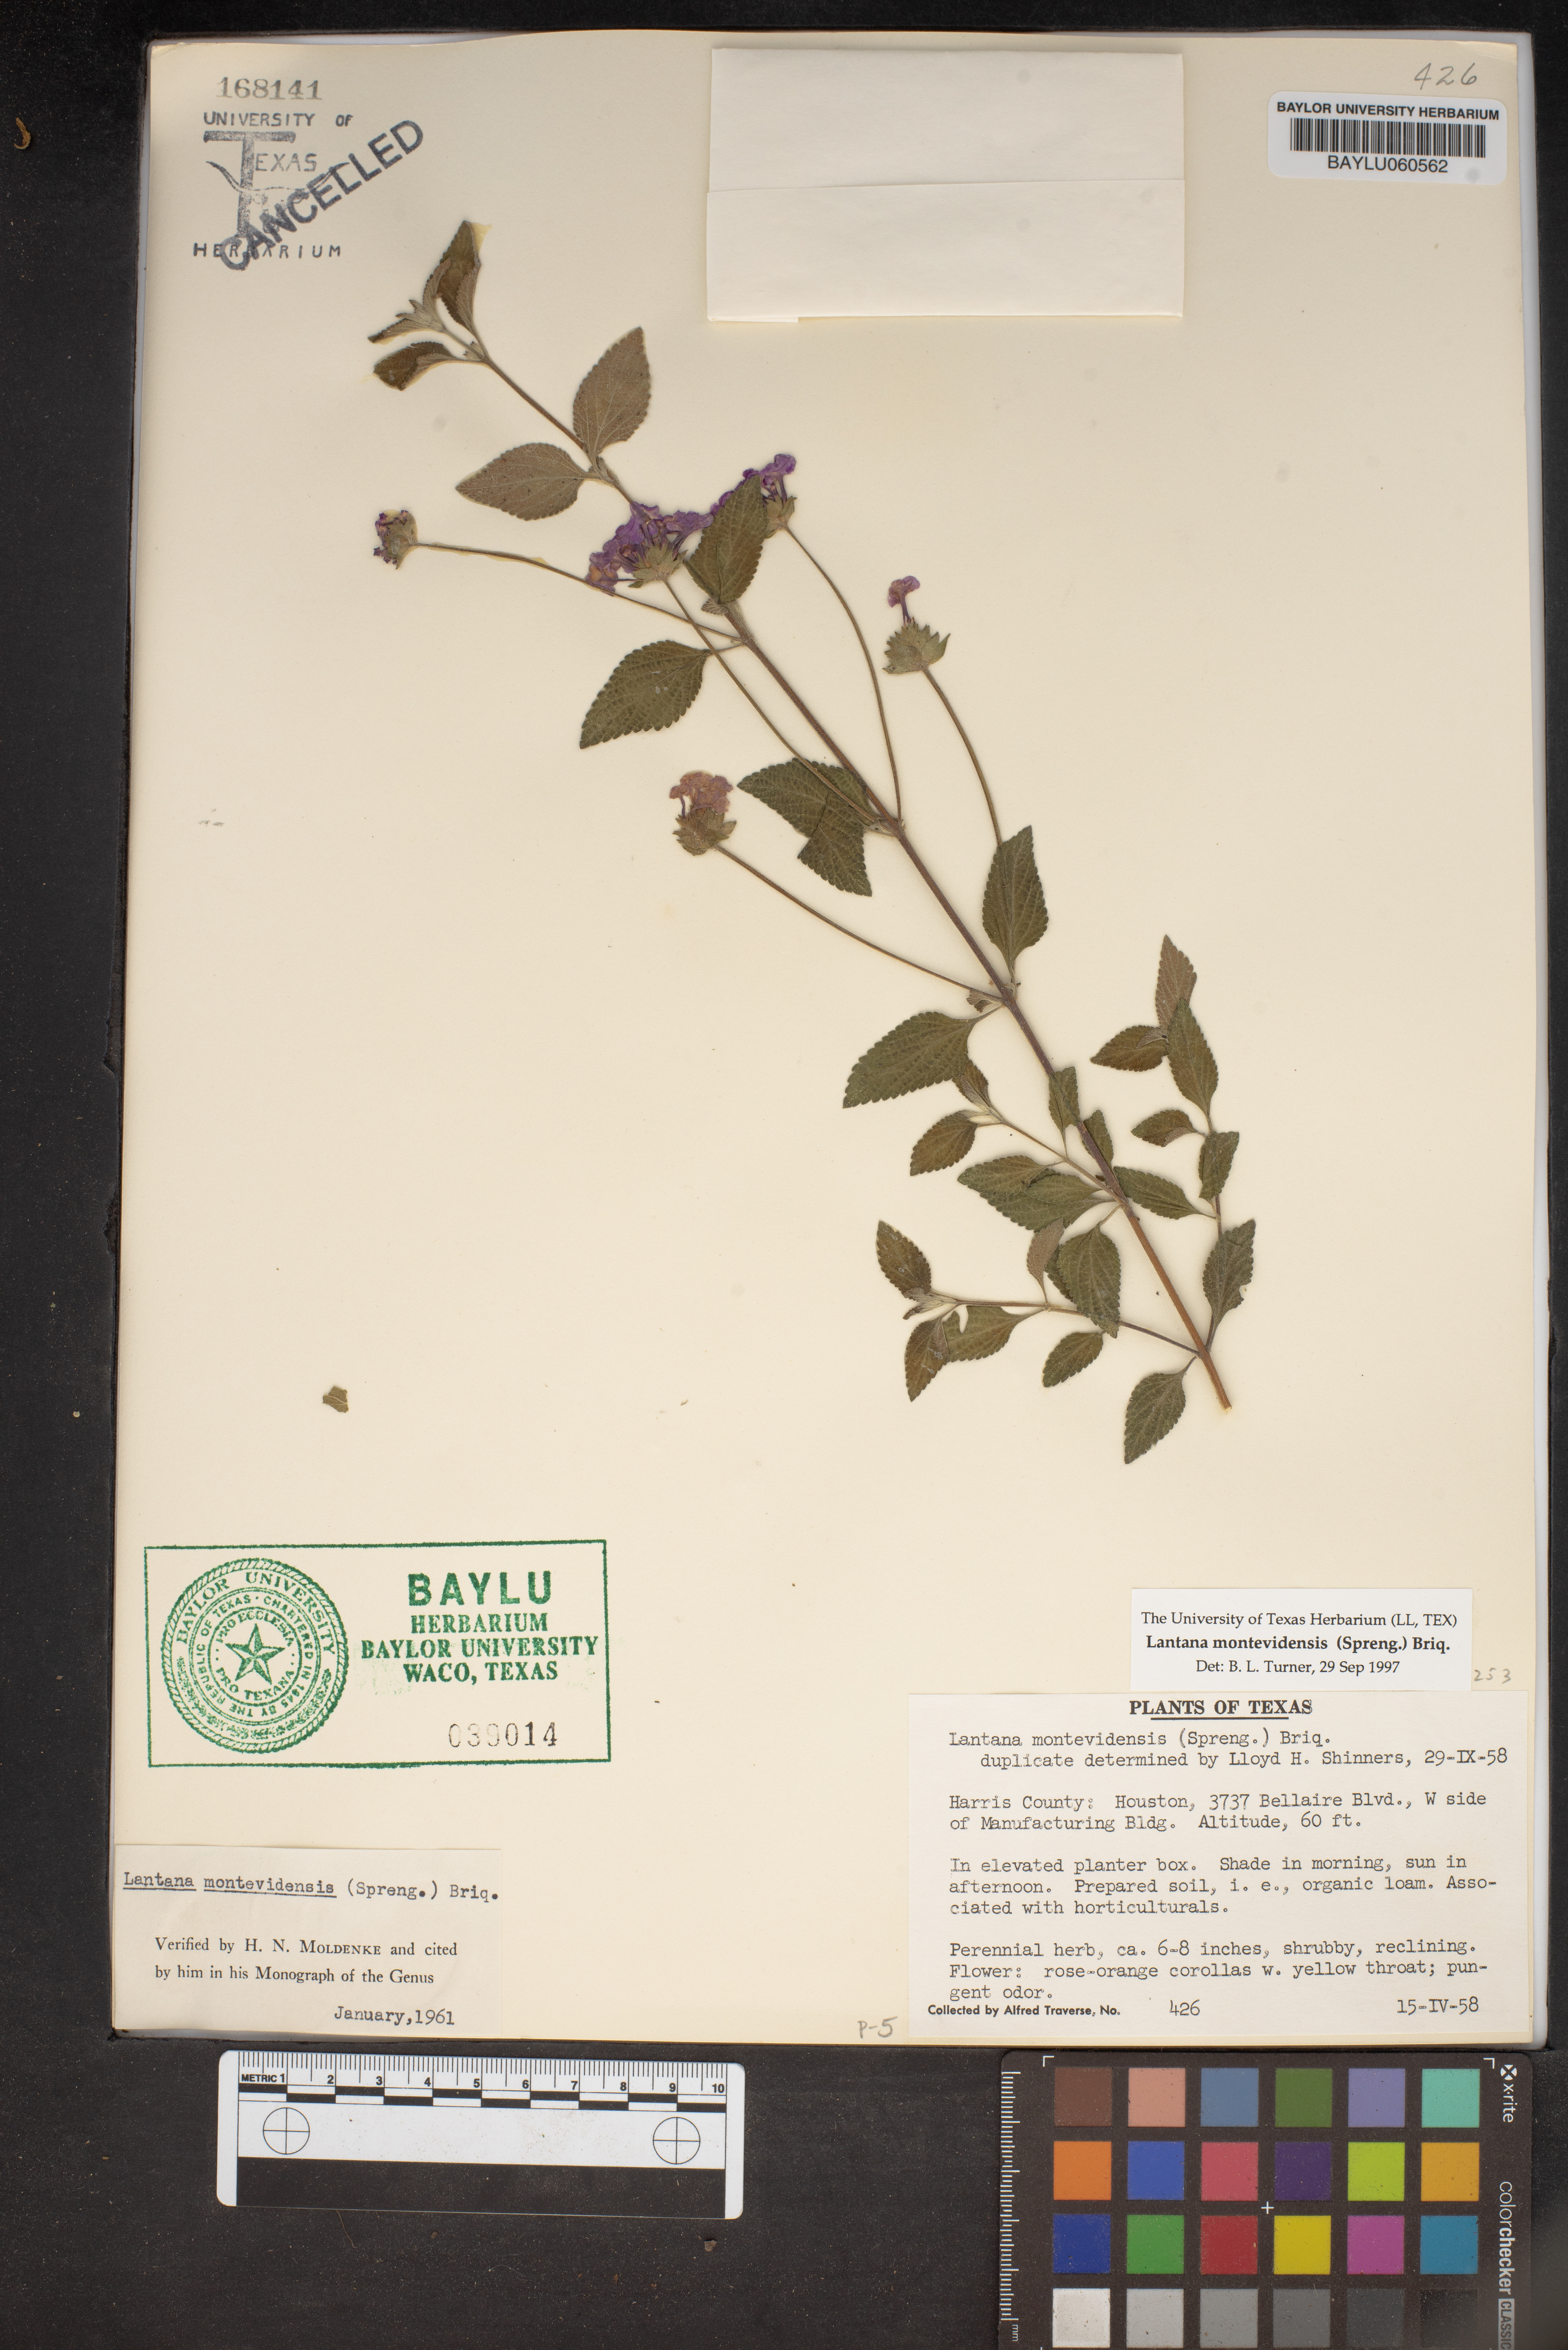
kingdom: Plantae
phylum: Tracheophyta
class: Magnoliopsida
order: Lamiales
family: Verbenaceae
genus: Lantana
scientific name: Lantana montevidensis
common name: Trailing shrubverbena
